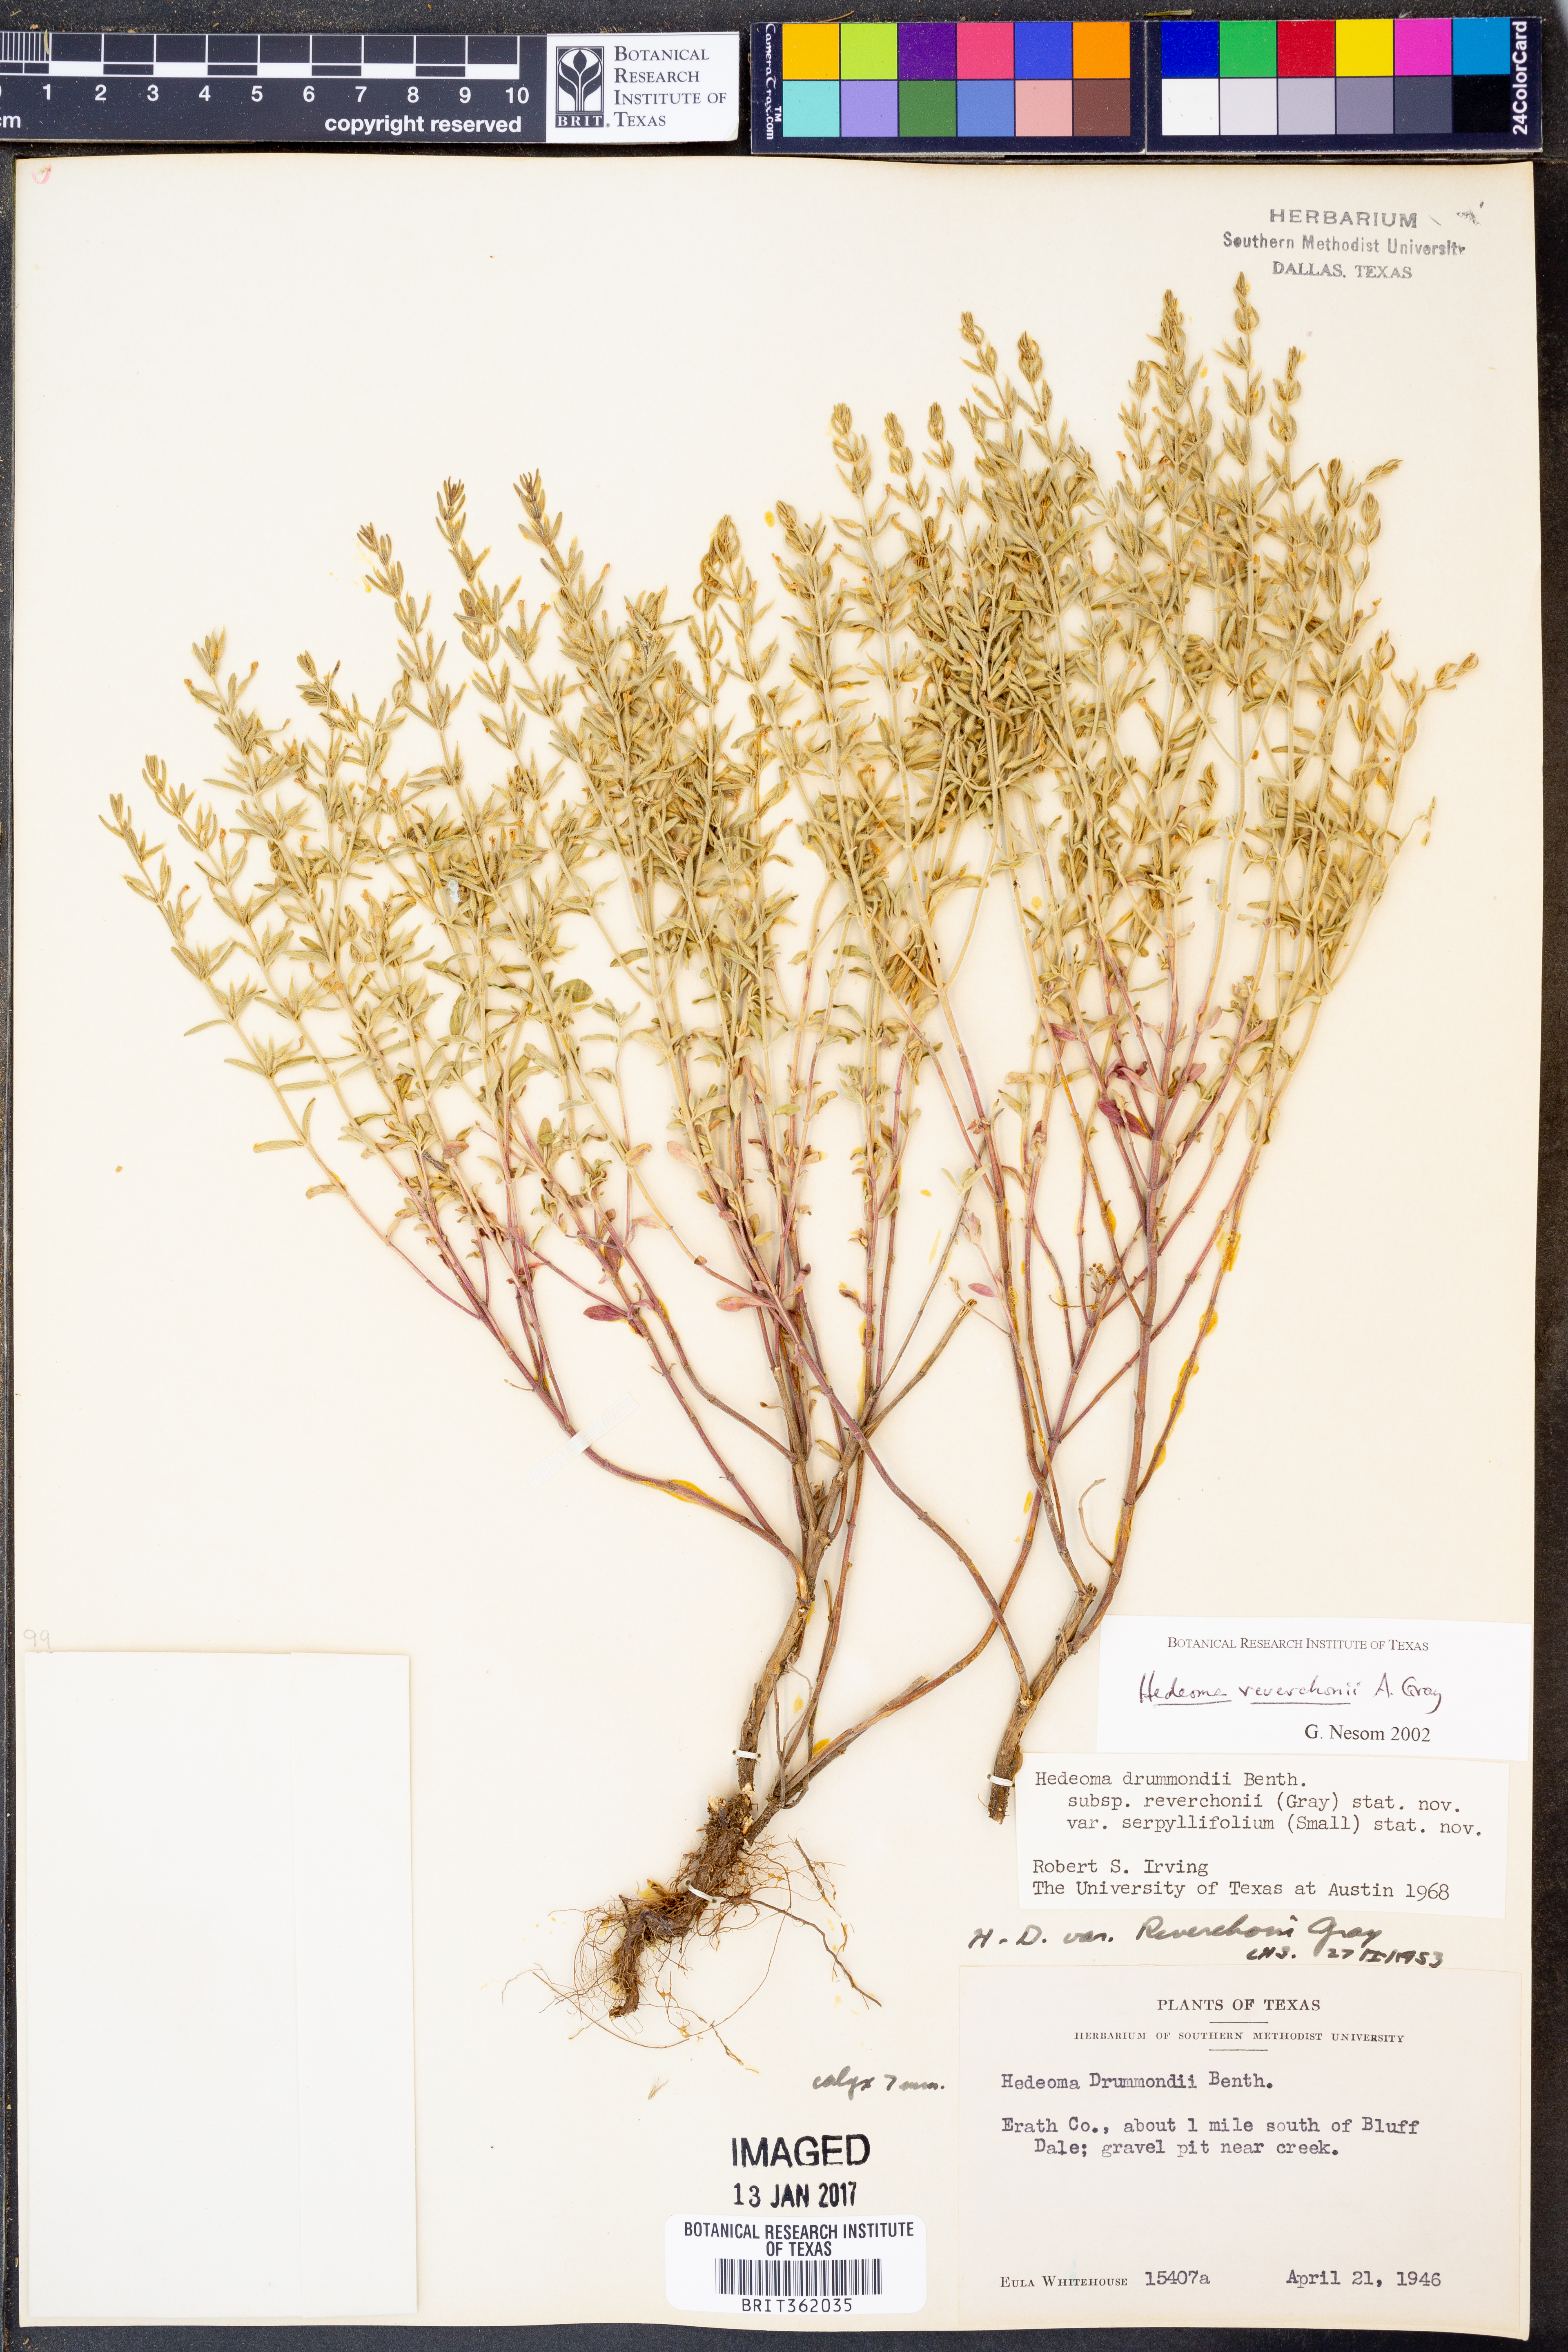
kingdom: Plantae
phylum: Tracheophyta
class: Magnoliopsida
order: Lamiales
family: Lamiaceae
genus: Hedeoma
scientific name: Hedeoma reverchonii
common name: Reverchon's false penny-royal
